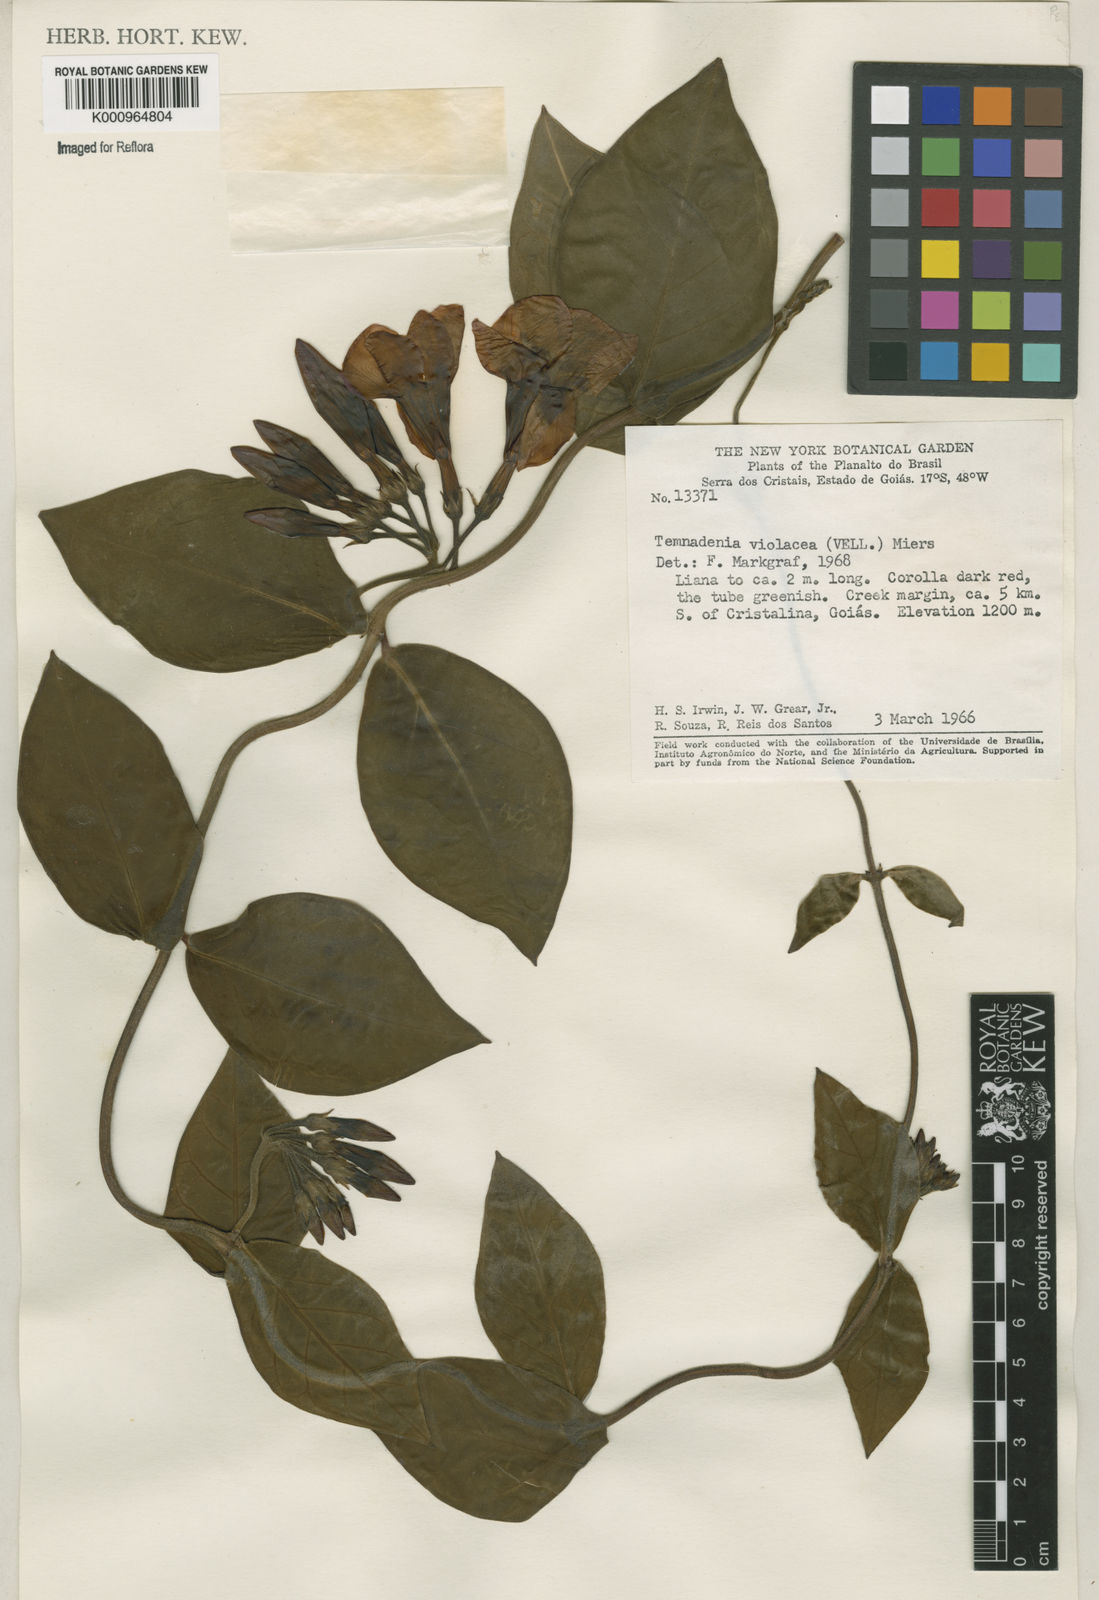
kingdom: Plantae
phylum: Tracheophyta
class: Magnoliopsida
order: Gentianales
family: Apocynaceae
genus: Temnadenia
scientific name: Temnadenia violacea
